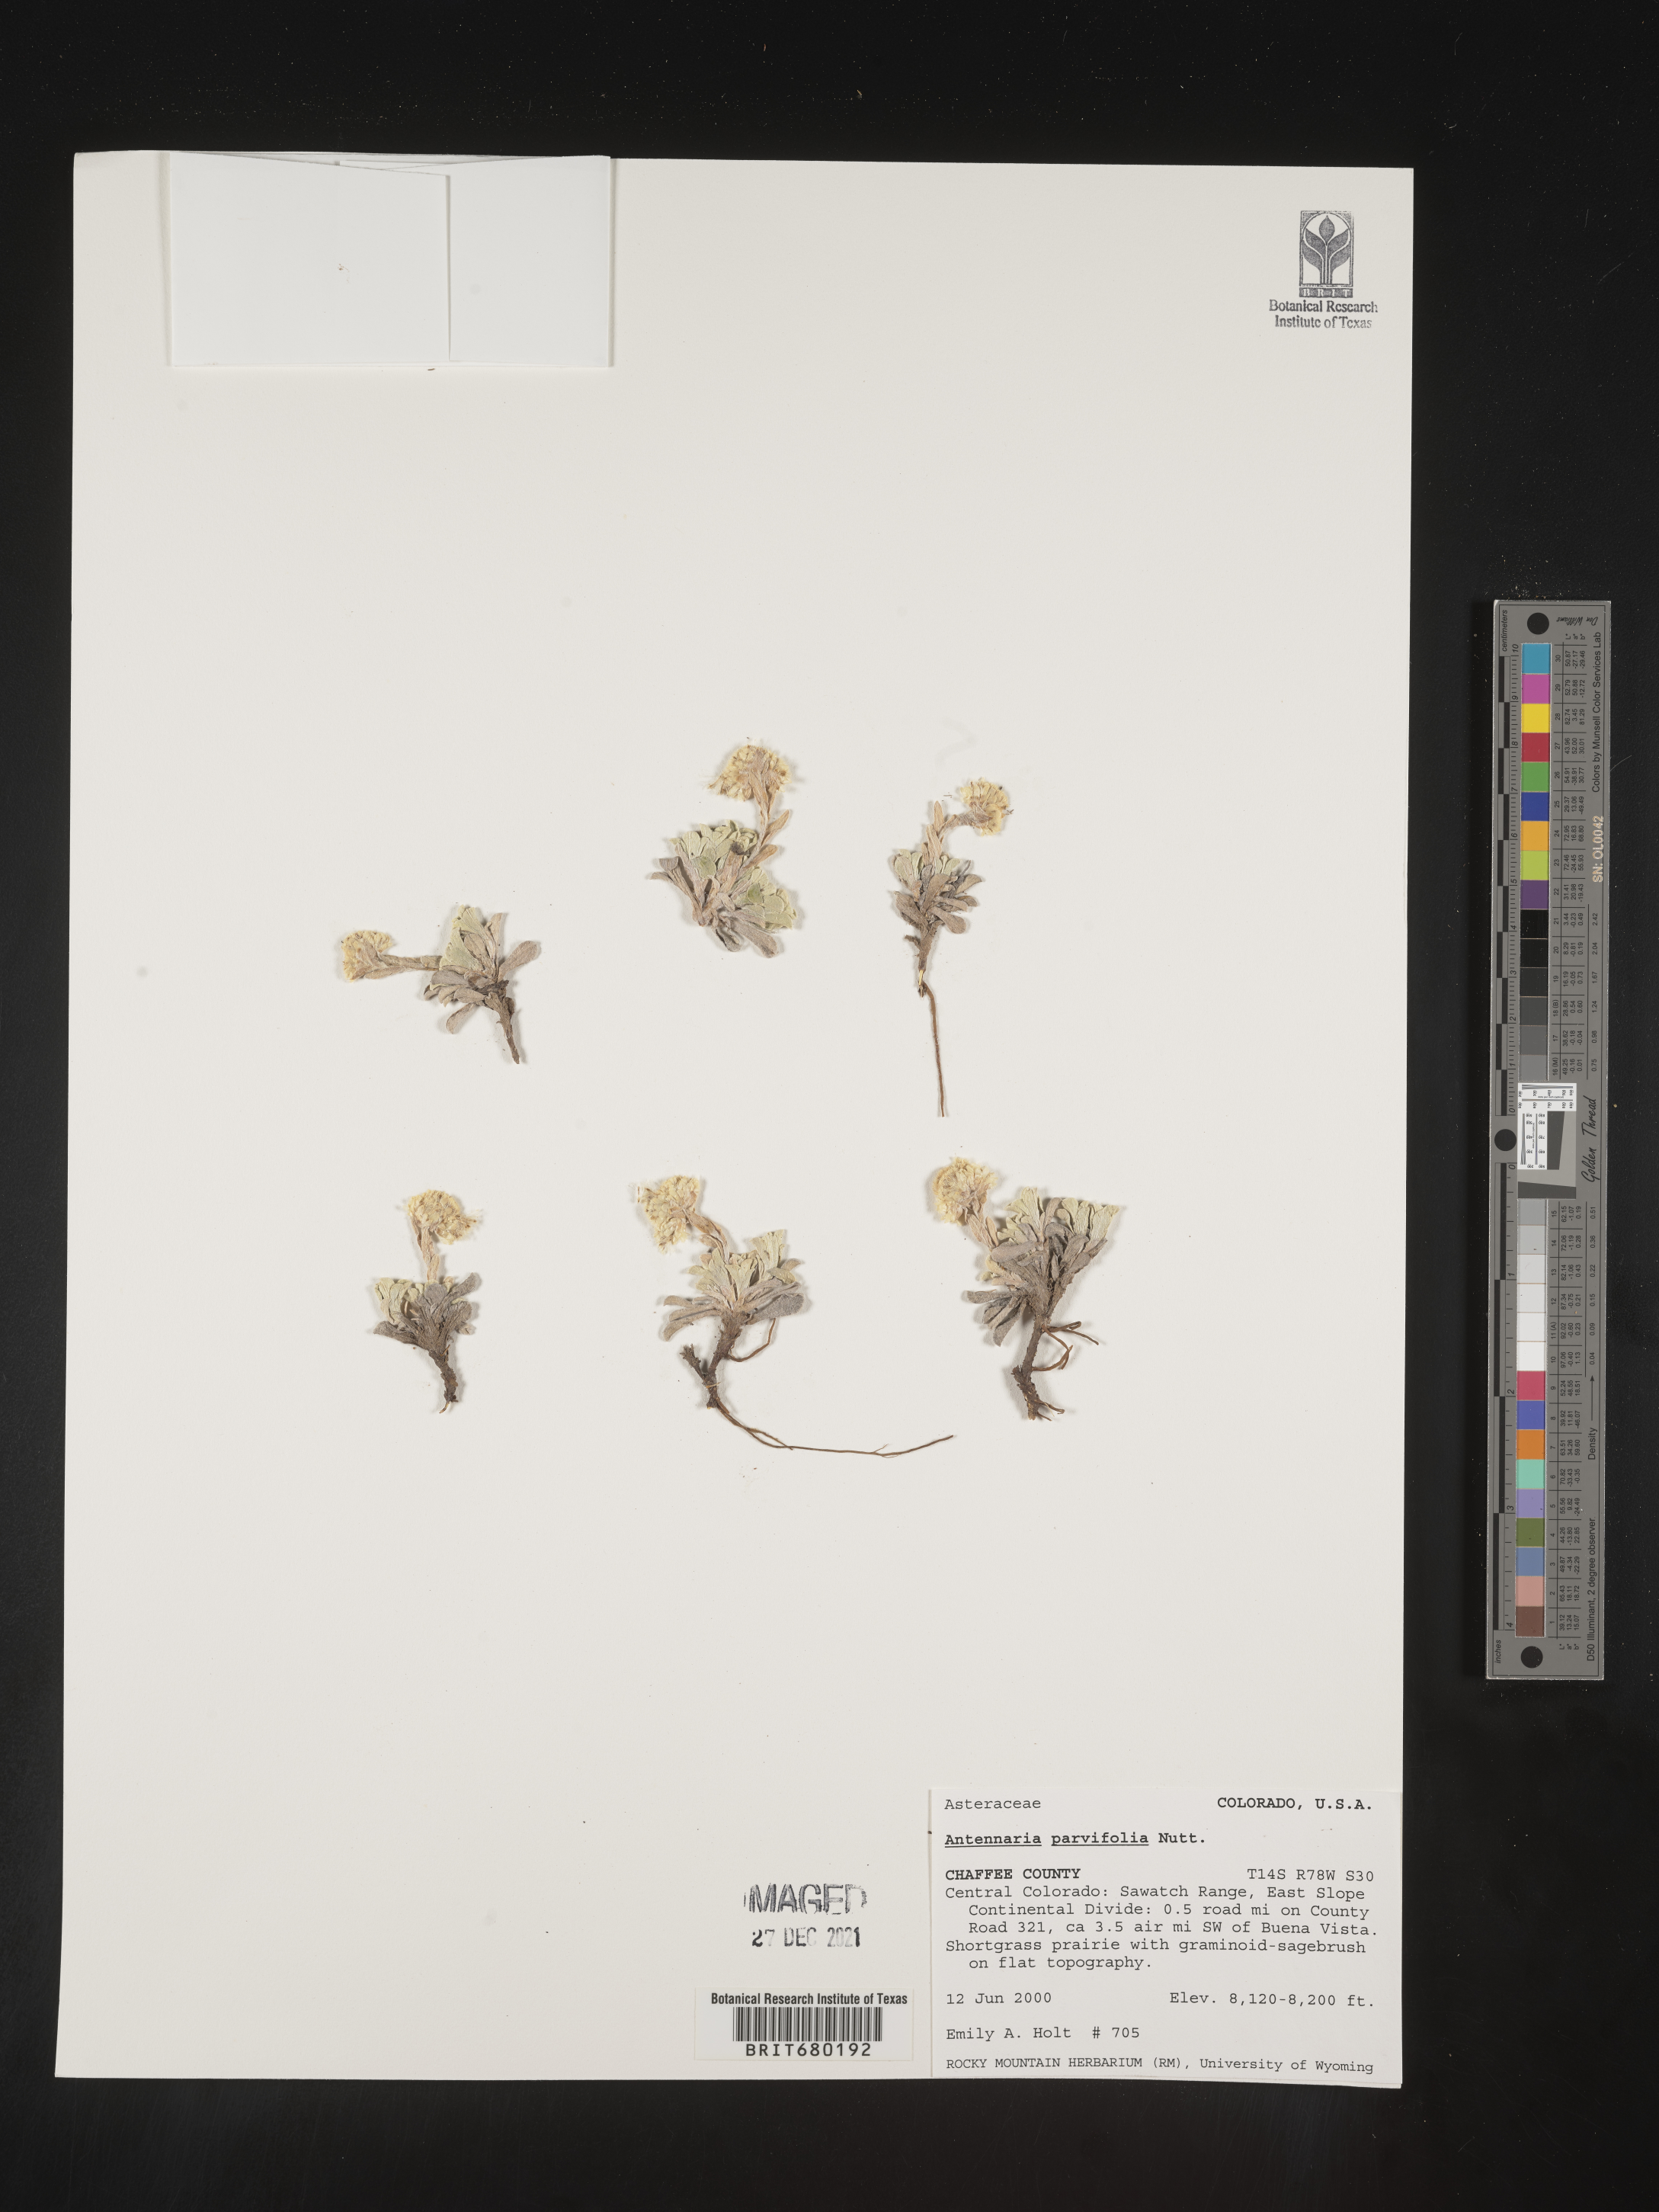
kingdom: Plantae
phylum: Tracheophyta
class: Magnoliopsida
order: Asterales
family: Asteraceae
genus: Antennaria
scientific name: Antennaria plantaginifolia
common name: Plantain-leaved pussytoes
